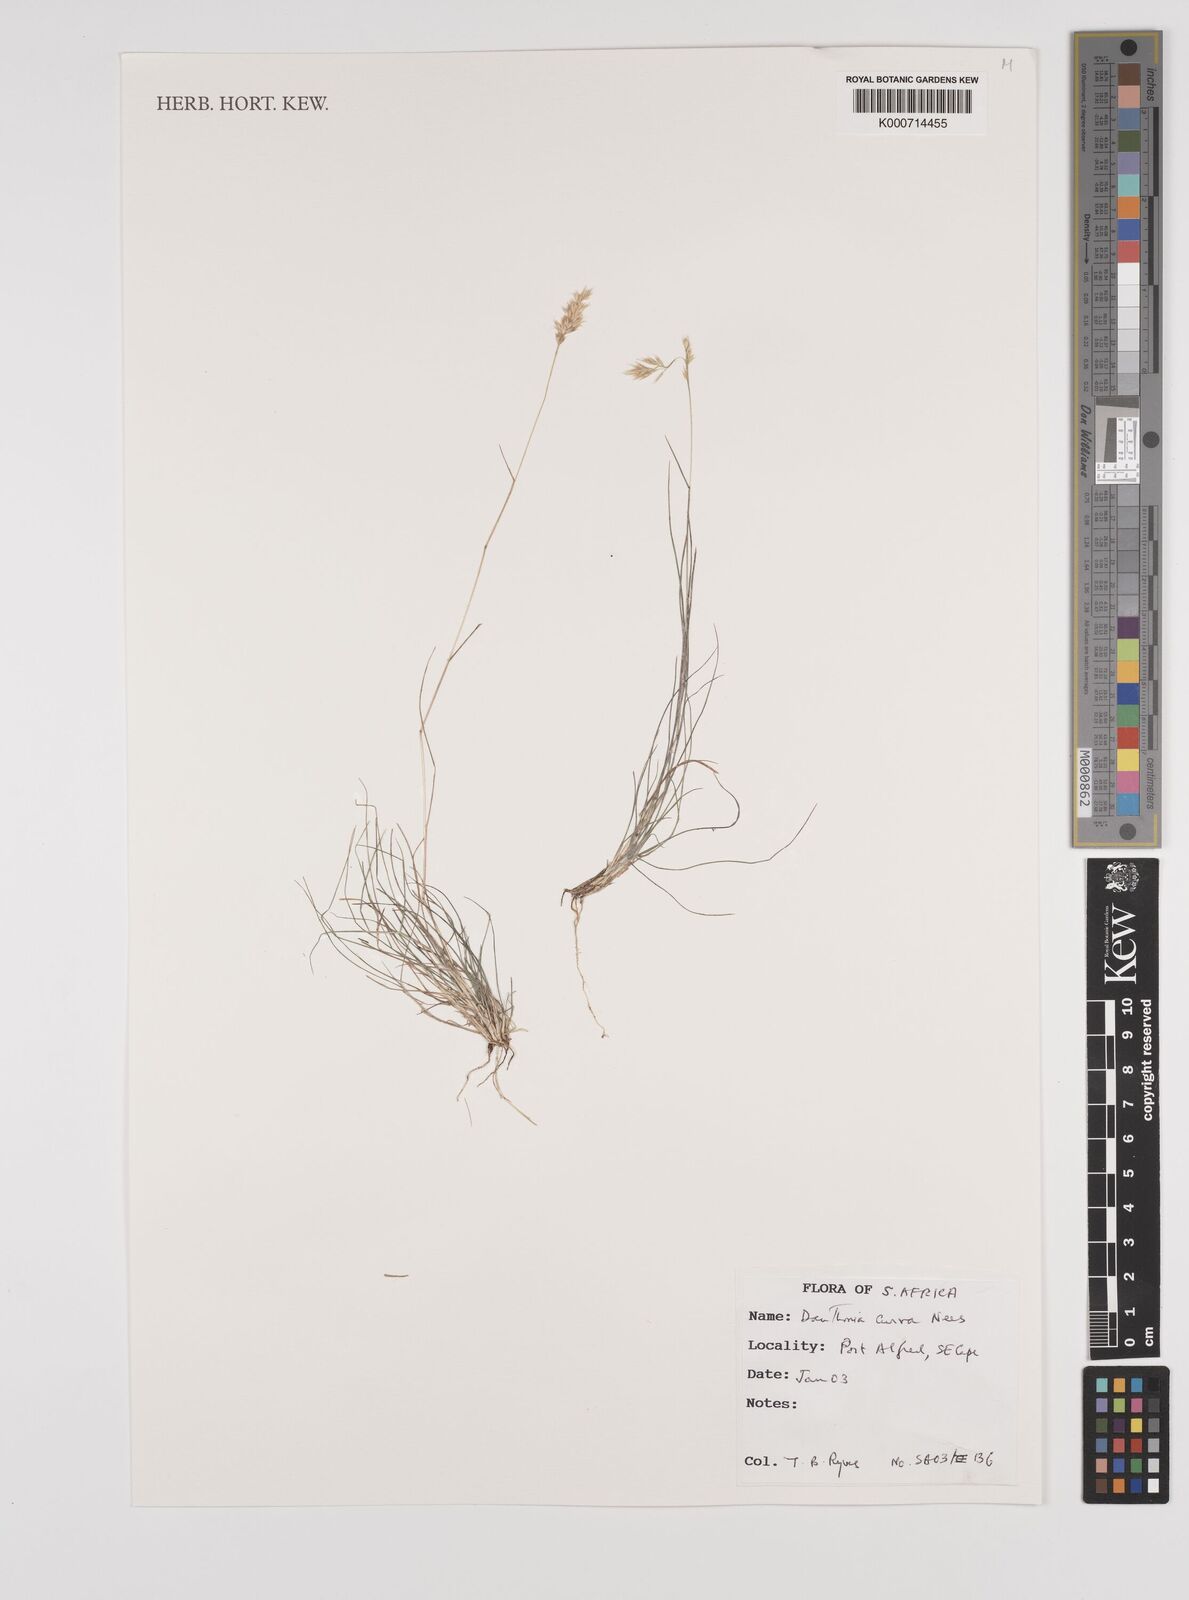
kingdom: Plantae
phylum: Tracheophyta
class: Liliopsida
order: Poales
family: Poaceae
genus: Rytidosperma
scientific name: Rytidosperma
